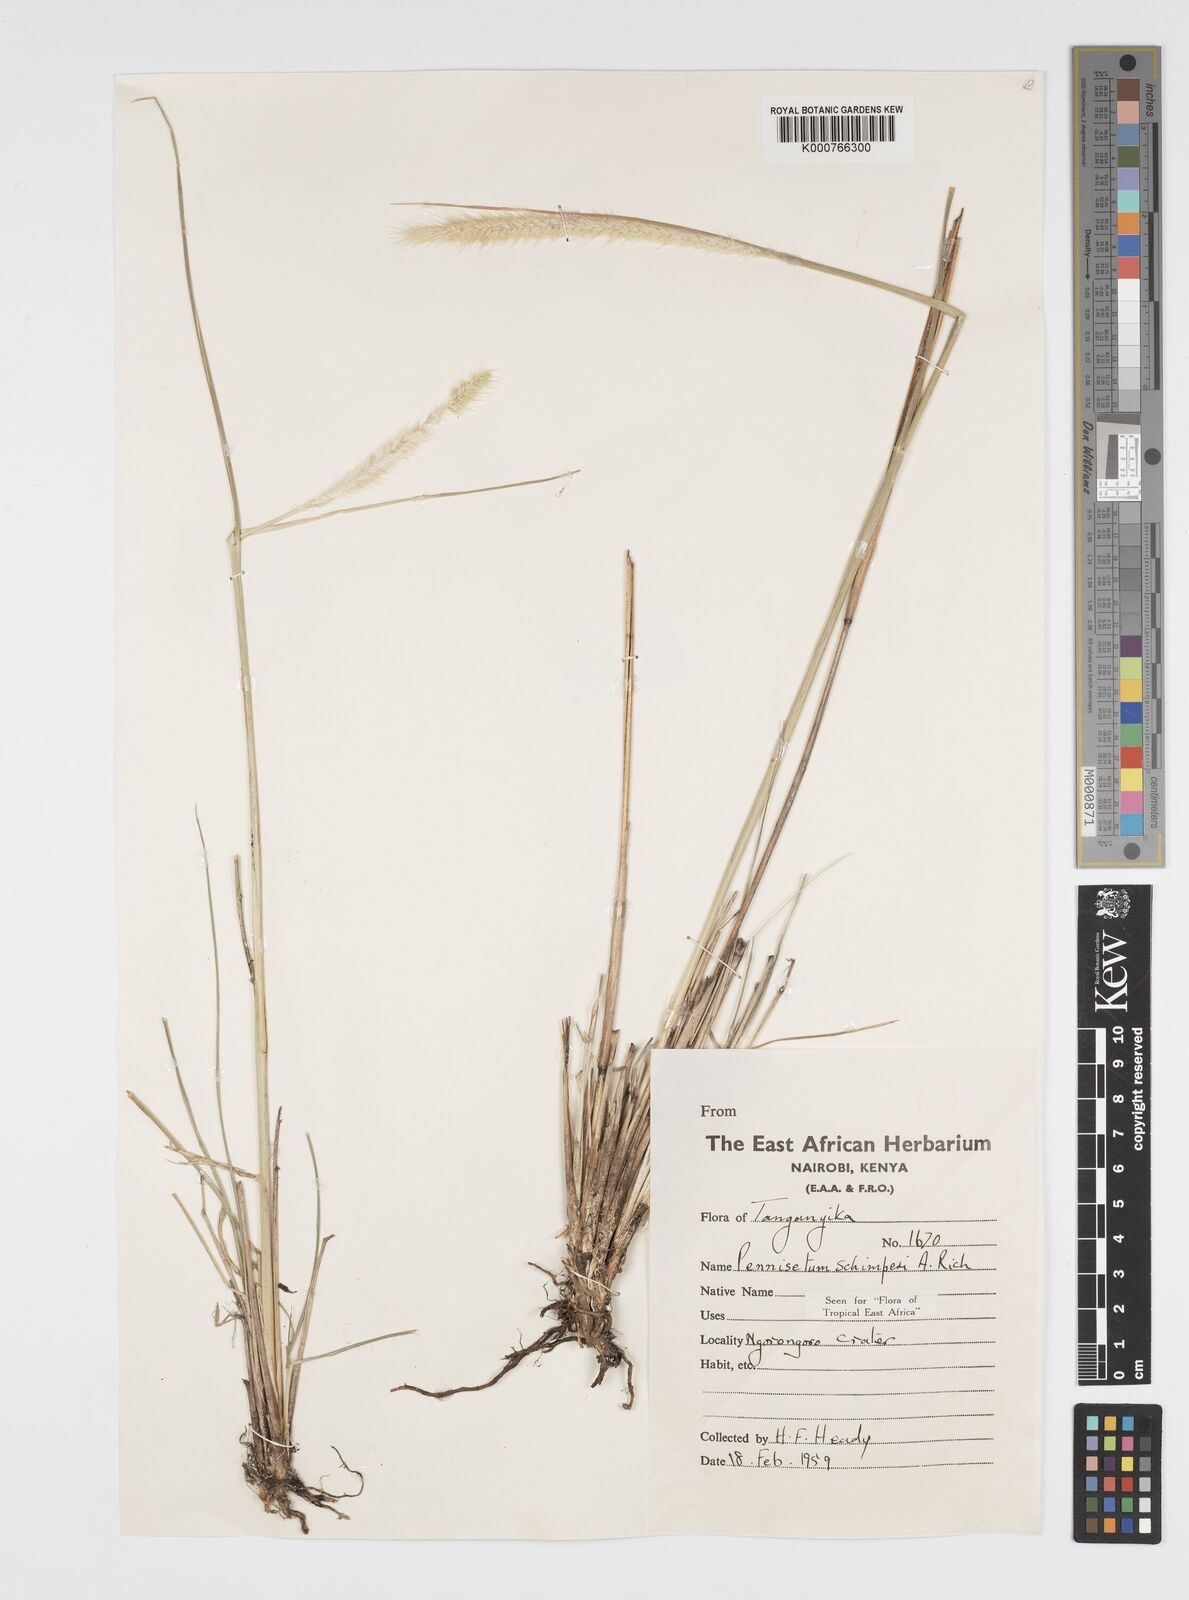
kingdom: Plantae
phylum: Tracheophyta
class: Liliopsida
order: Poales
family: Poaceae
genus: Cenchrus
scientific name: Cenchrus sphacelatus
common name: Bulgras
